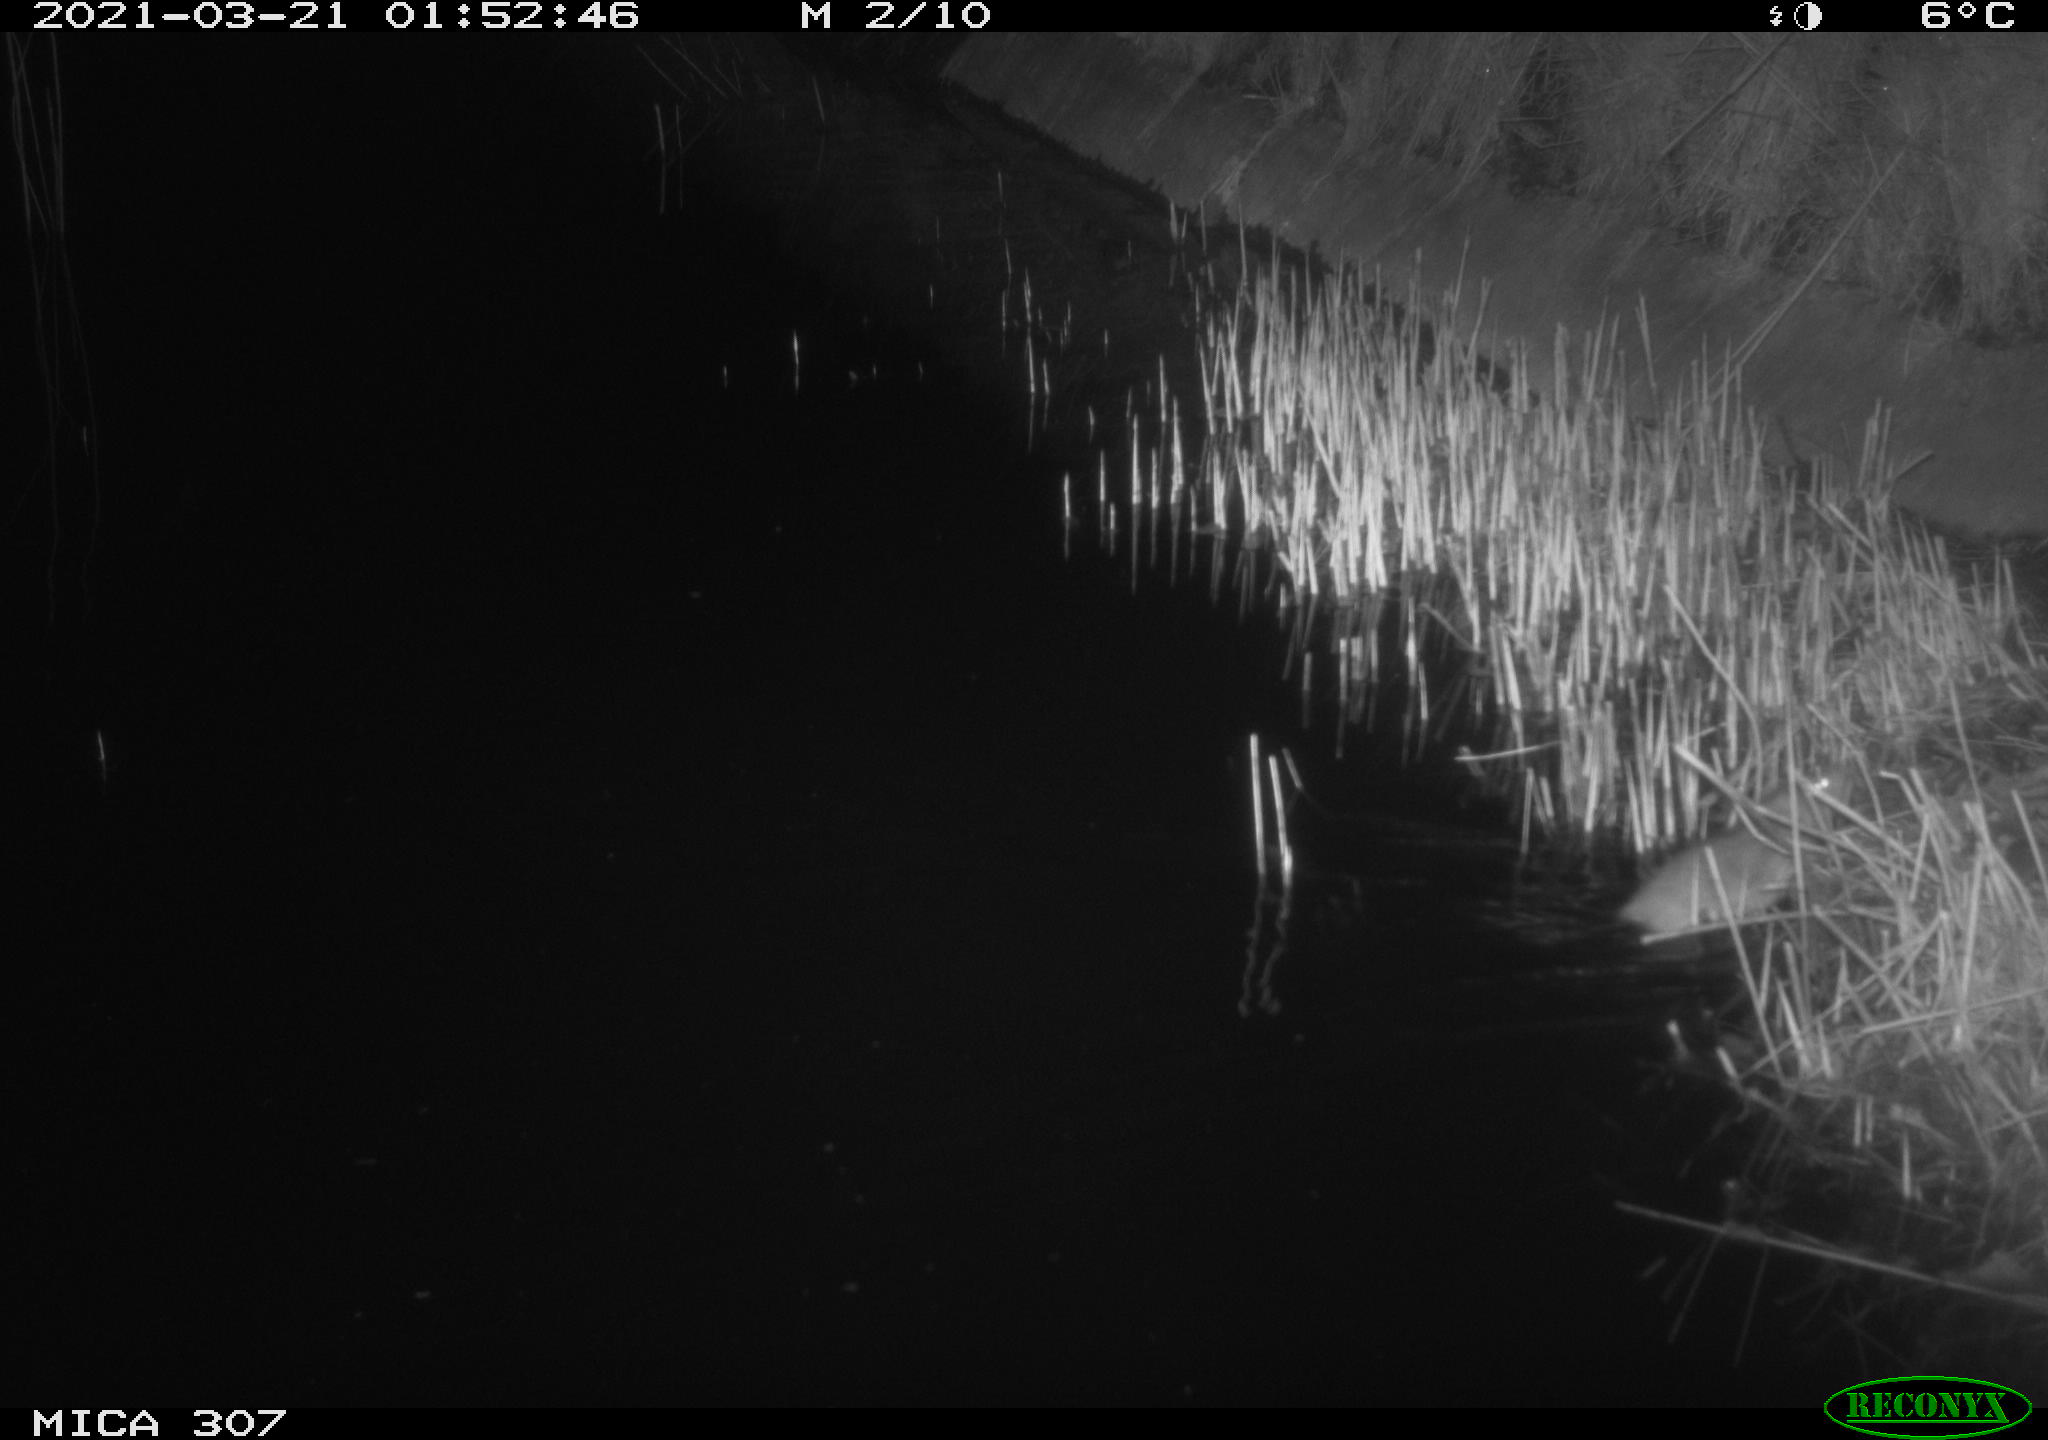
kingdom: Animalia
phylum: Chordata
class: Mammalia
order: Rodentia
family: Muridae
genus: Rattus
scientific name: Rattus norvegicus
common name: Brown rat
